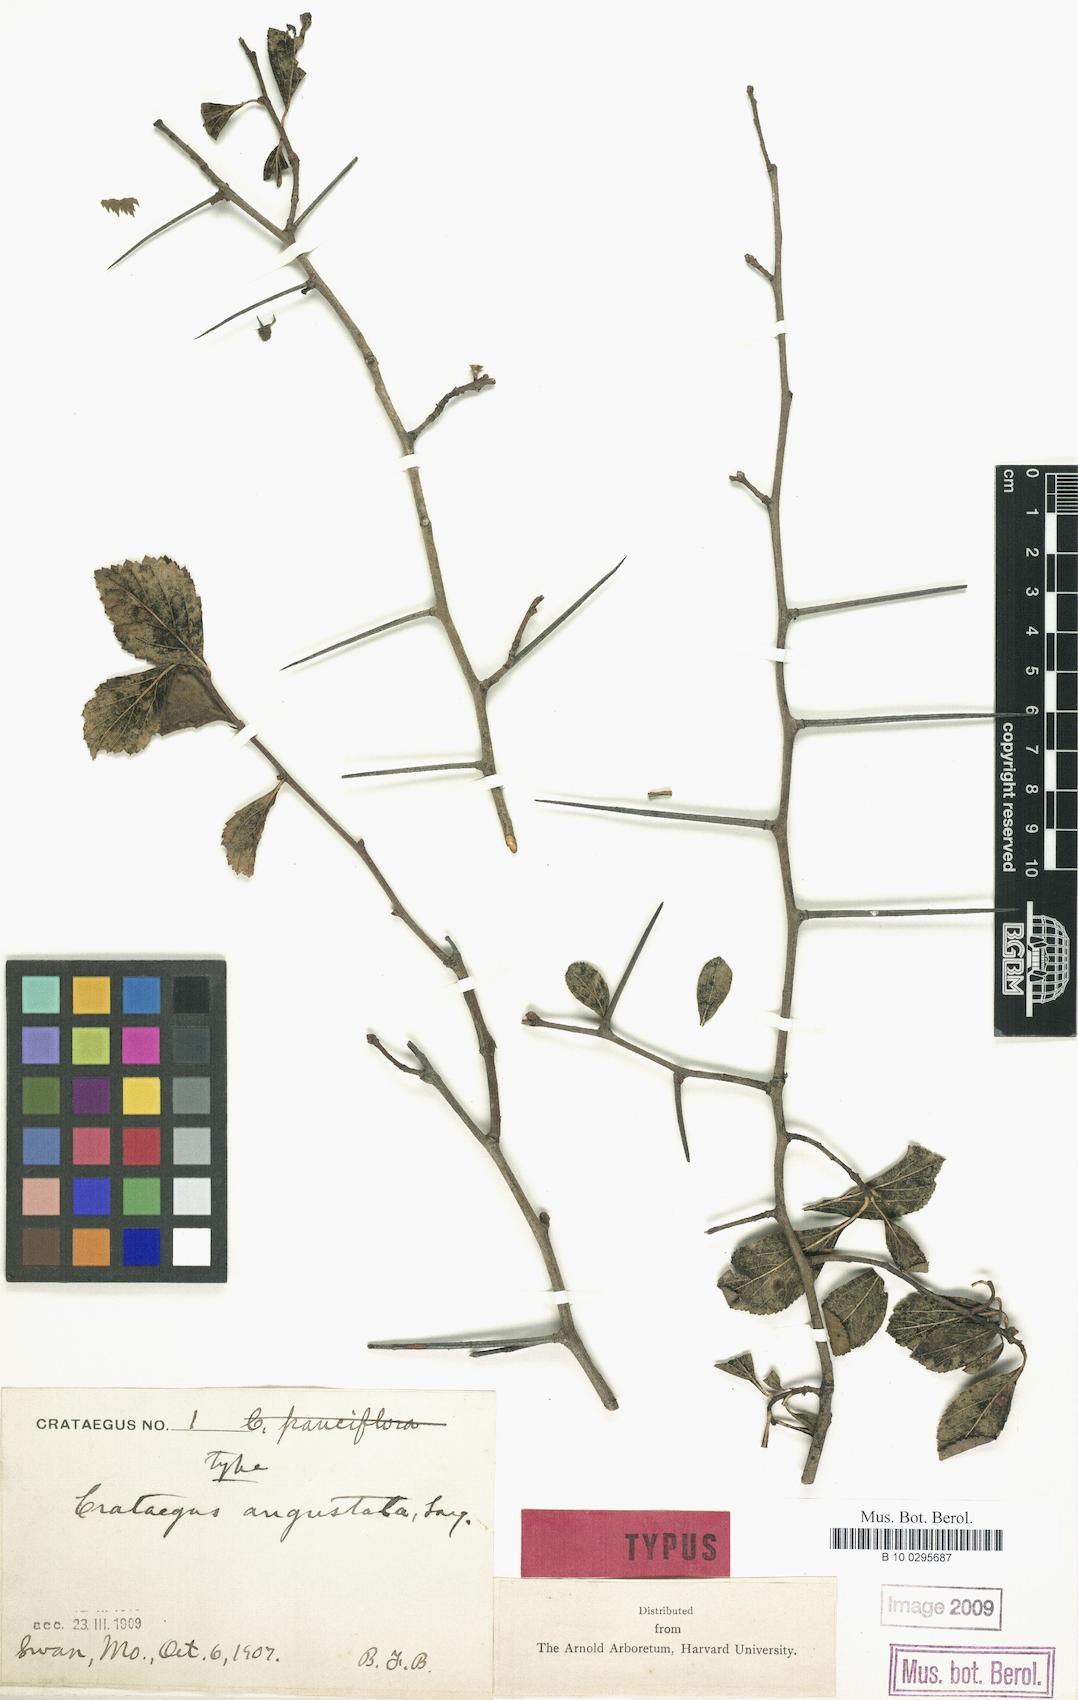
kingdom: Plantae
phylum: Tracheophyta
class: Magnoliopsida
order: Rosales
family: Rosaceae
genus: Crataegus
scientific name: Crataegus angustata
